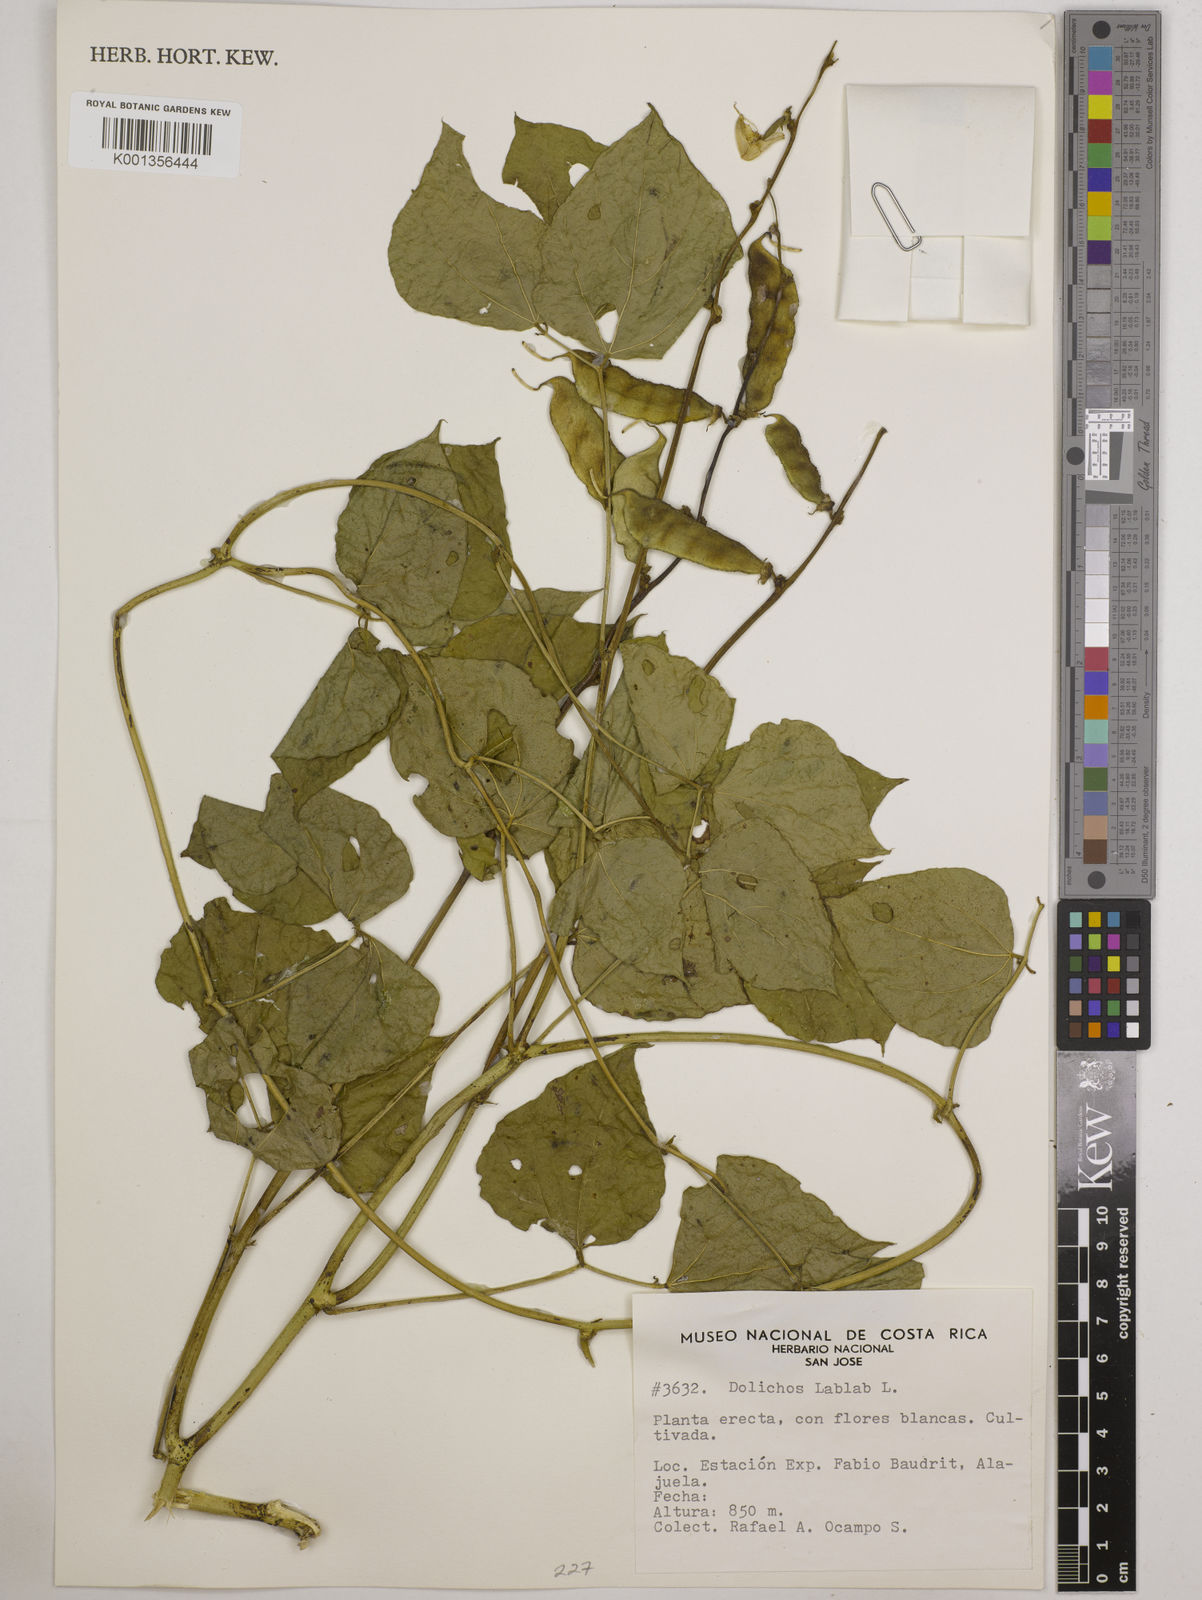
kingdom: Plantae
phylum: Tracheophyta
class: Magnoliopsida
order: Fabales
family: Fabaceae
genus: Lablab
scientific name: Lablab purpureus
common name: Lablab-bean
